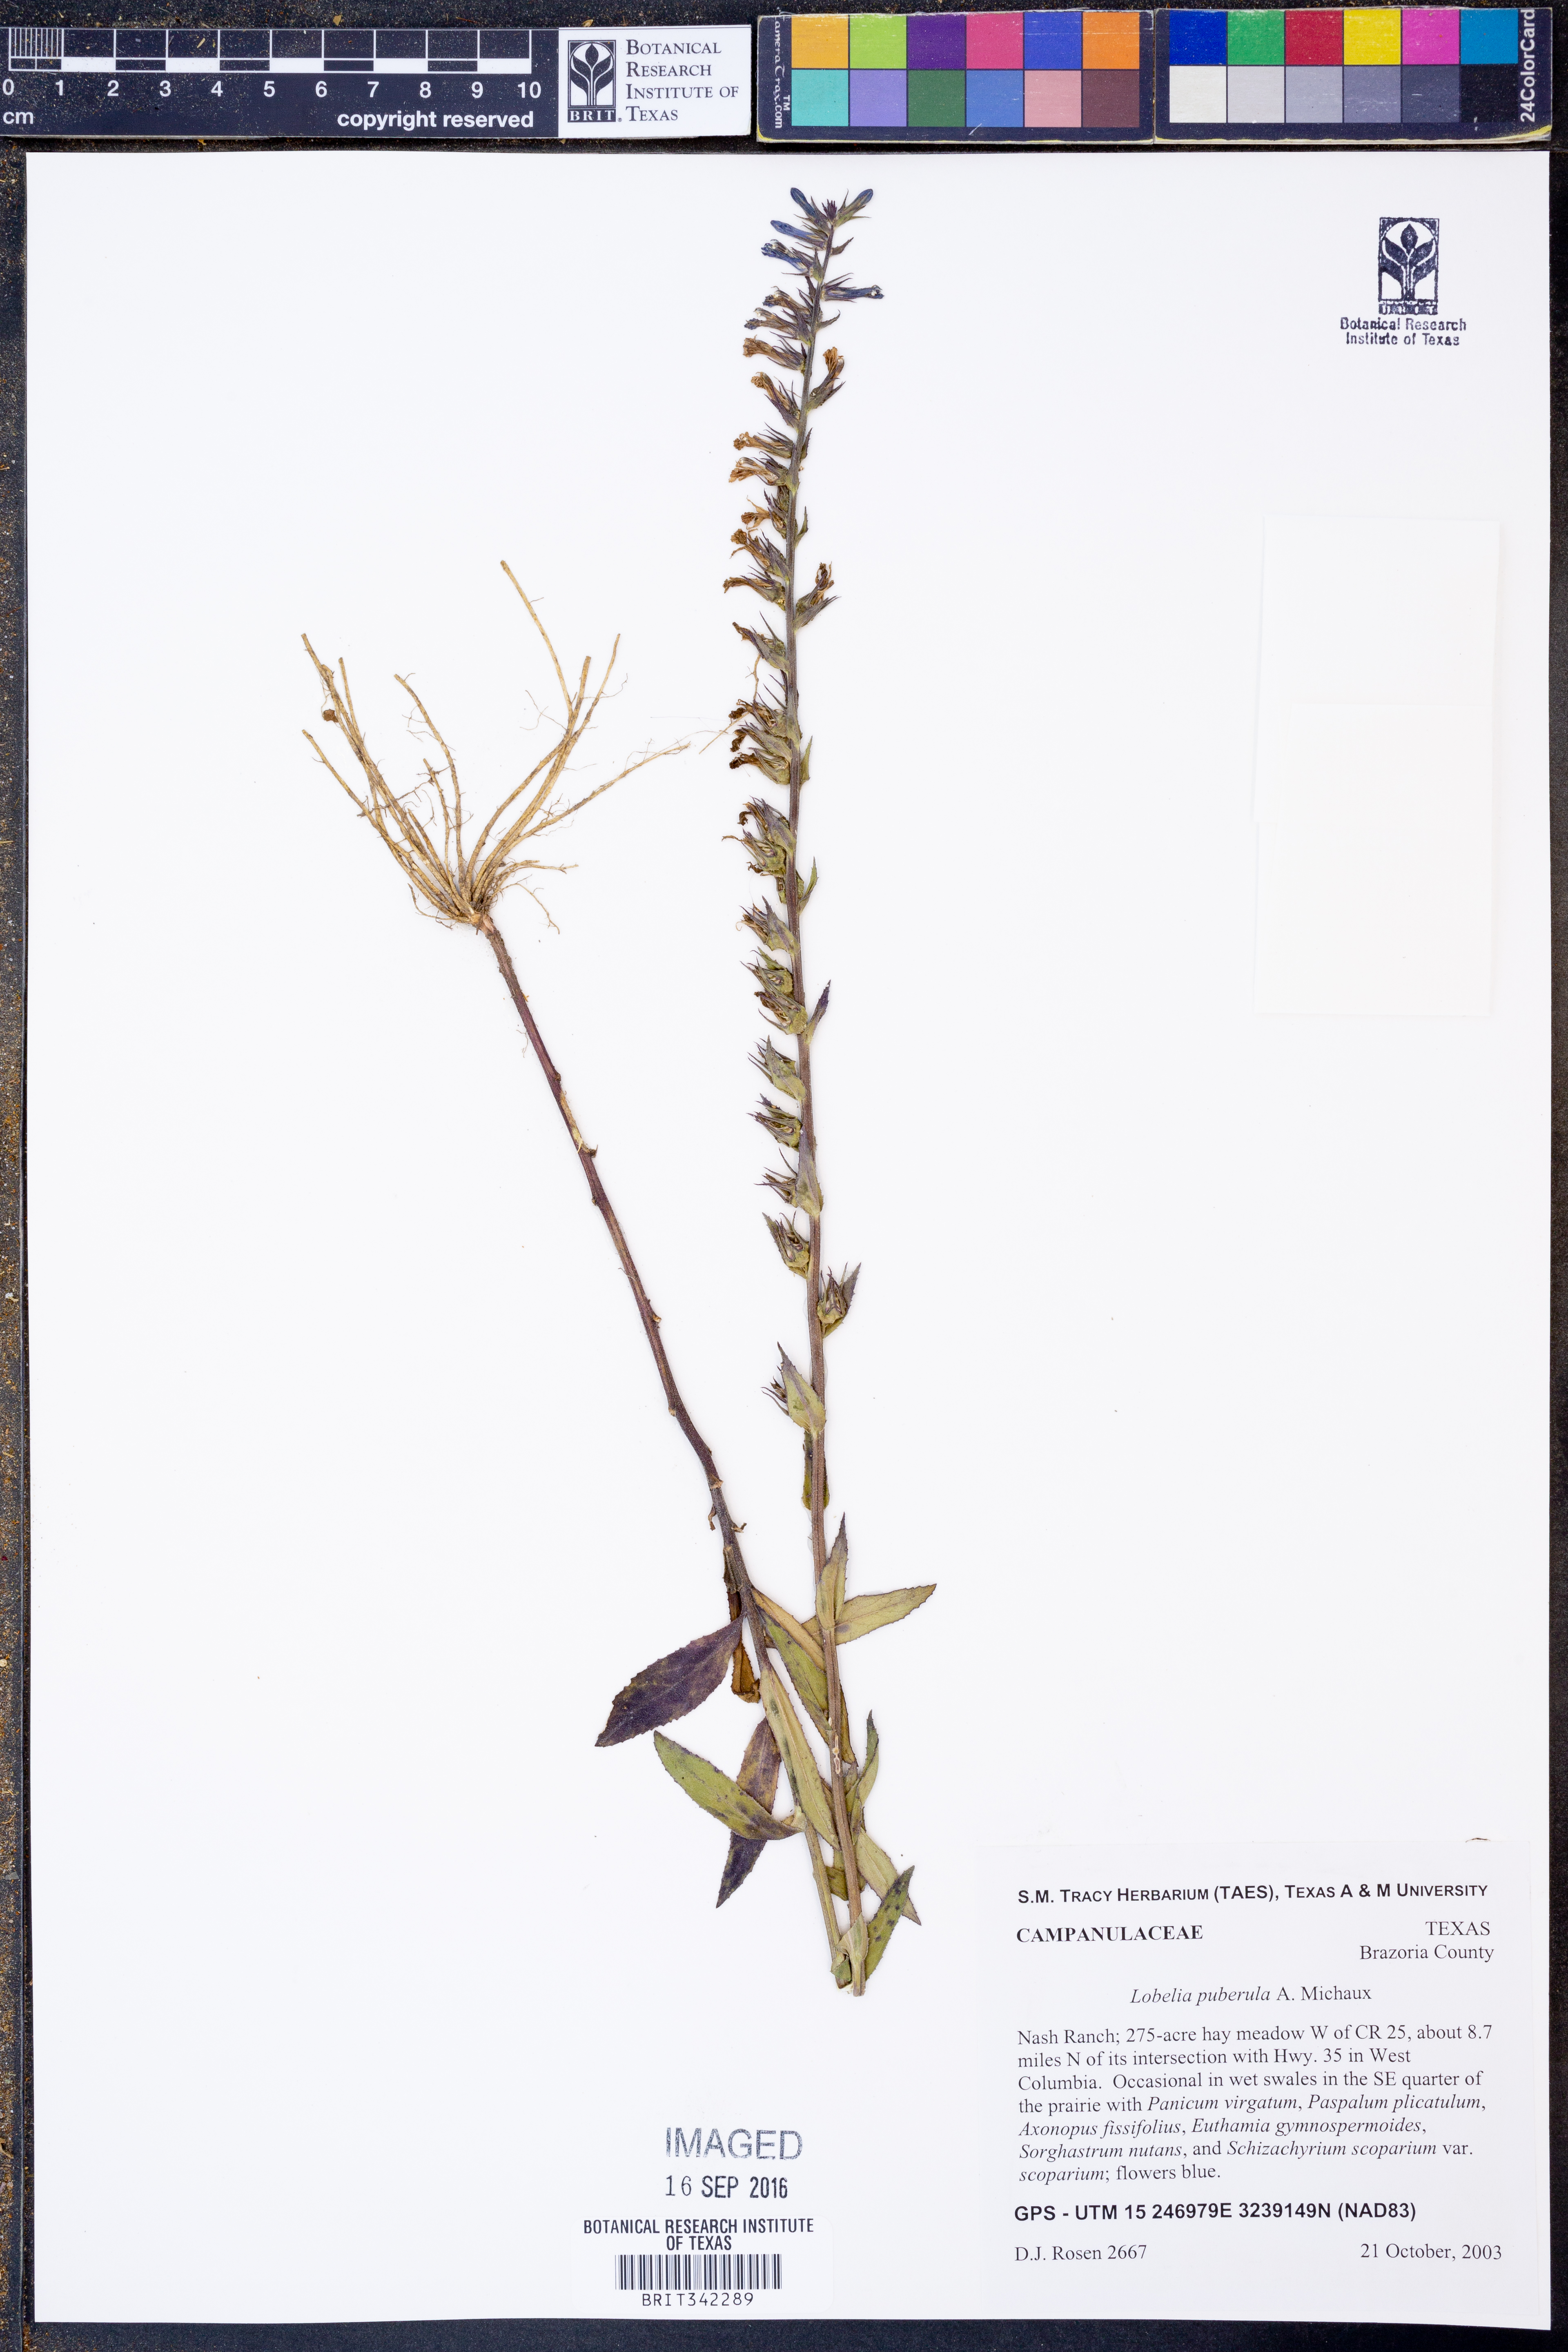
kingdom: Plantae
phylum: Tracheophyta
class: Magnoliopsida
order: Asterales
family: Campanulaceae
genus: Lobelia
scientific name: Lobelia puberula
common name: Purple dewdrop
